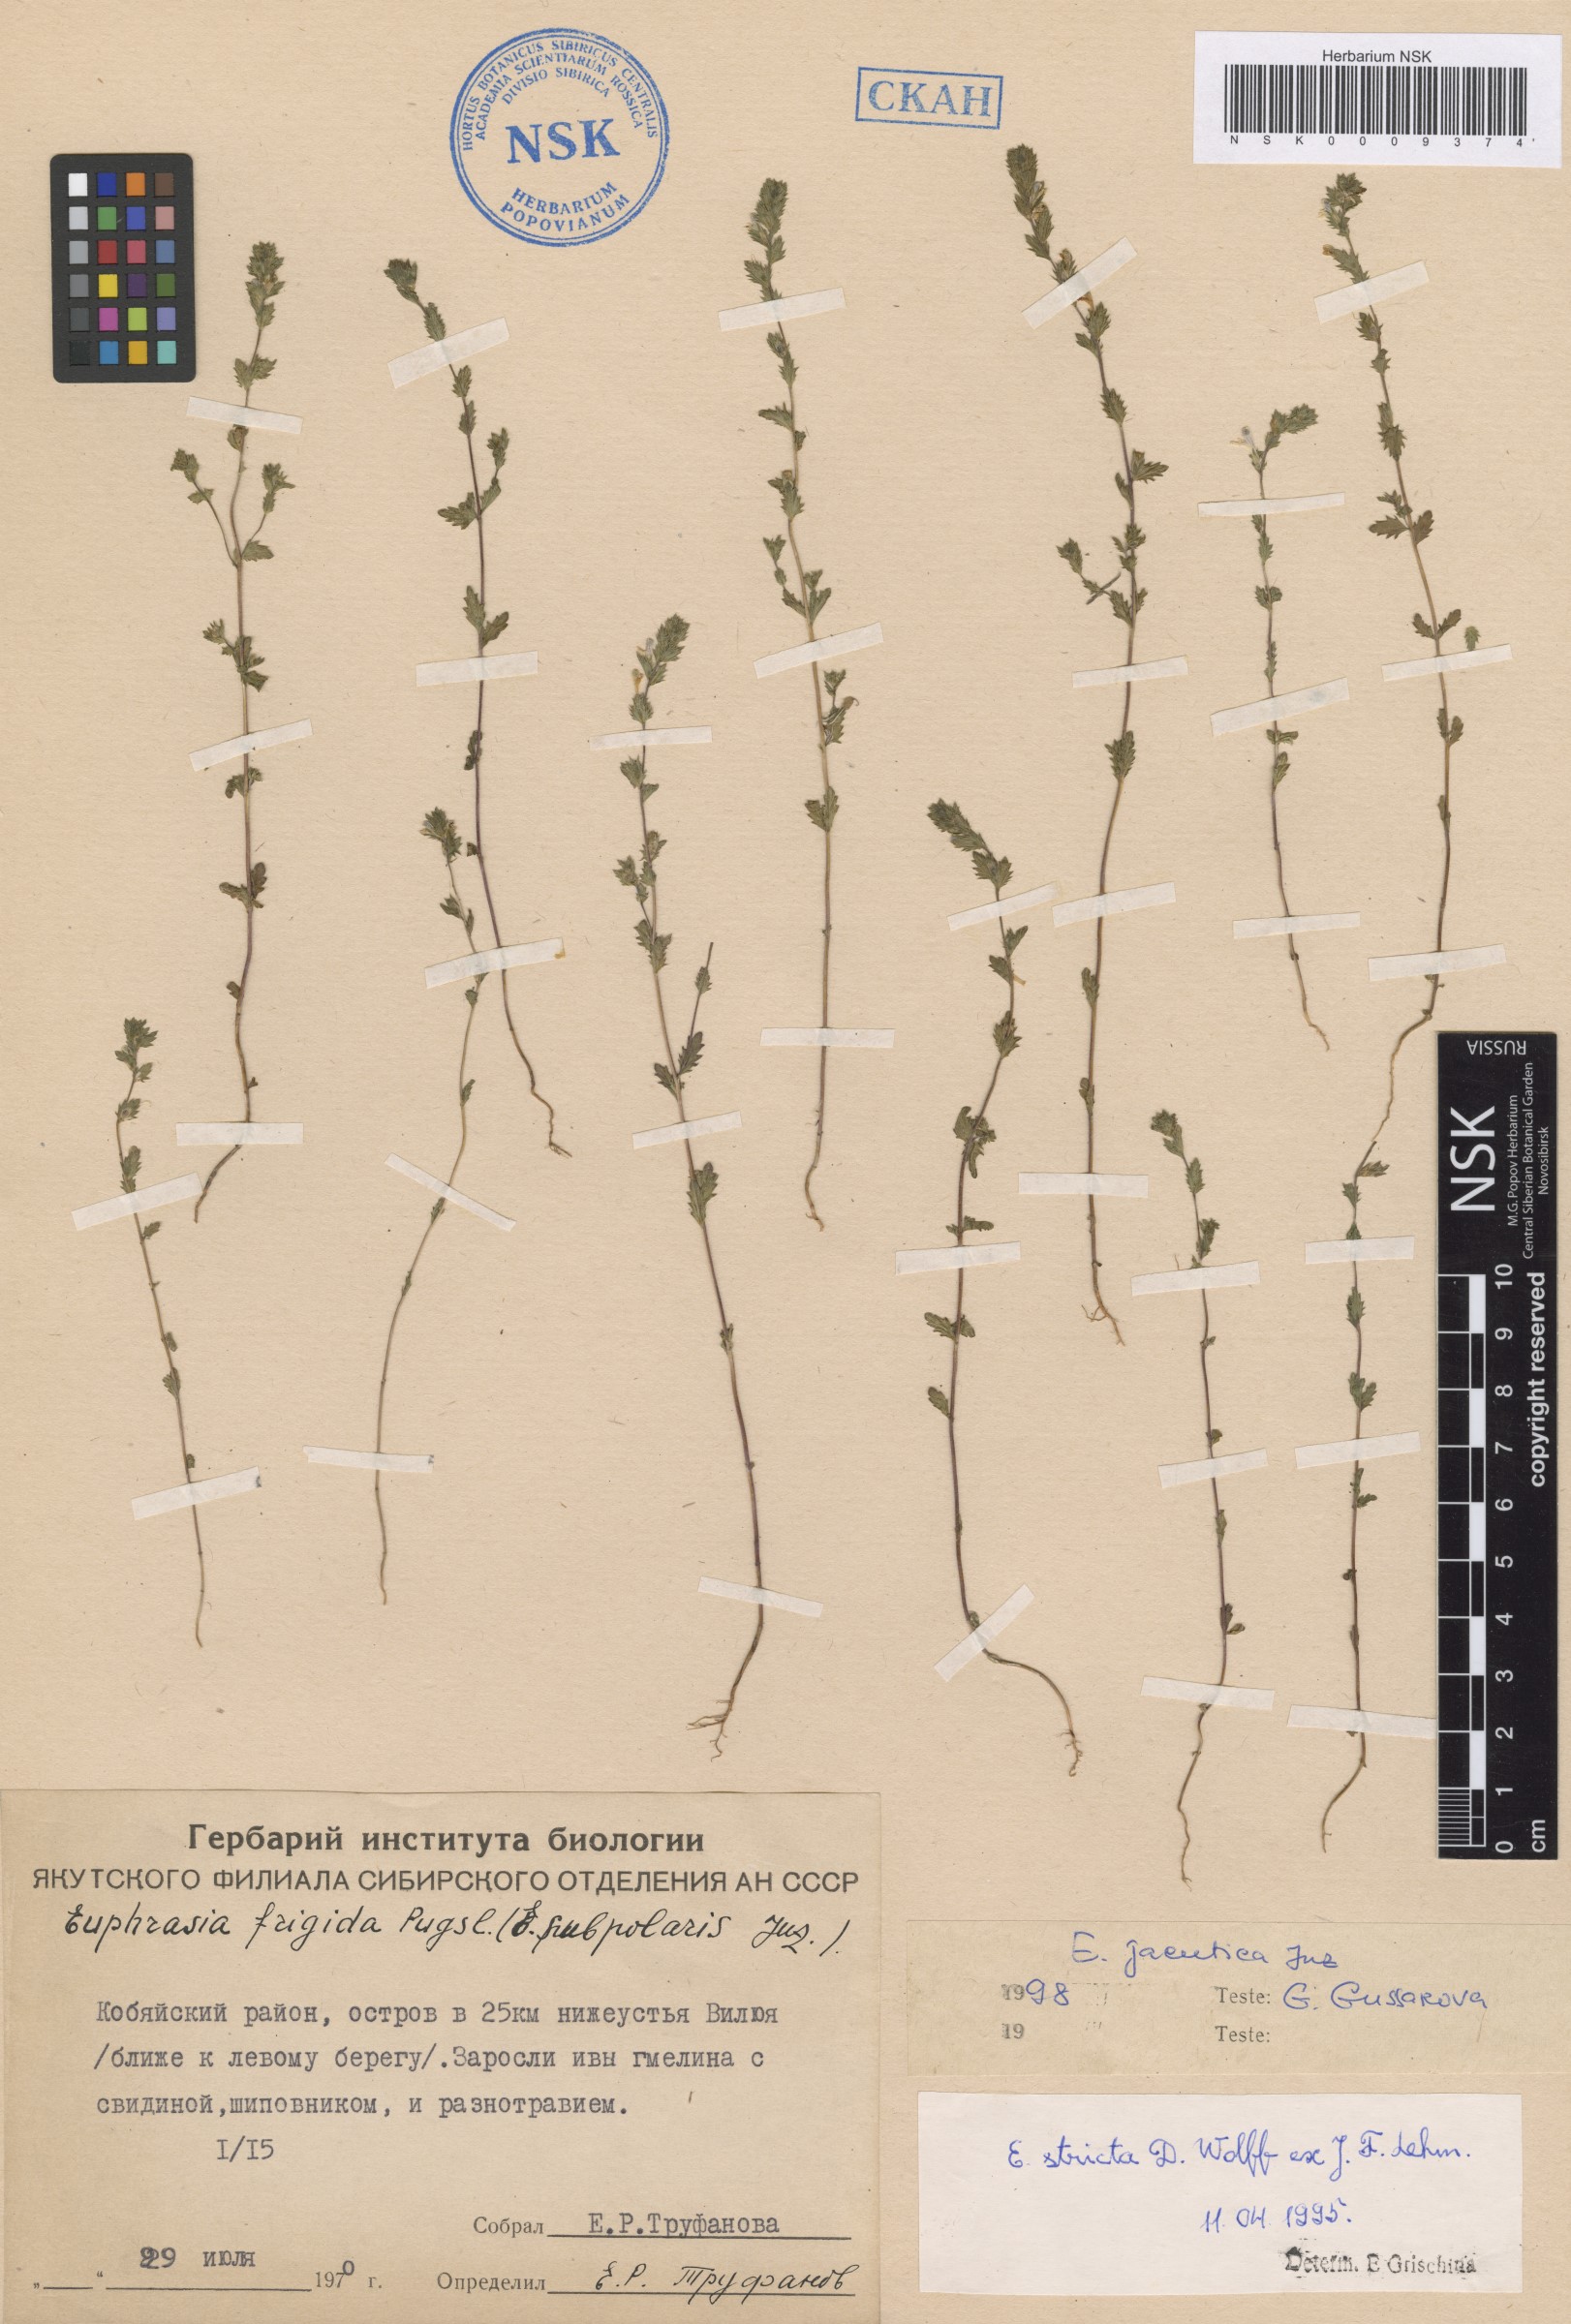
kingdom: Plantae
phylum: Tracheophyta
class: Magnoliopsida
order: Lamiales
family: Orobanchaceae
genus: Euphrasia
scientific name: Euphrasia jacutica
